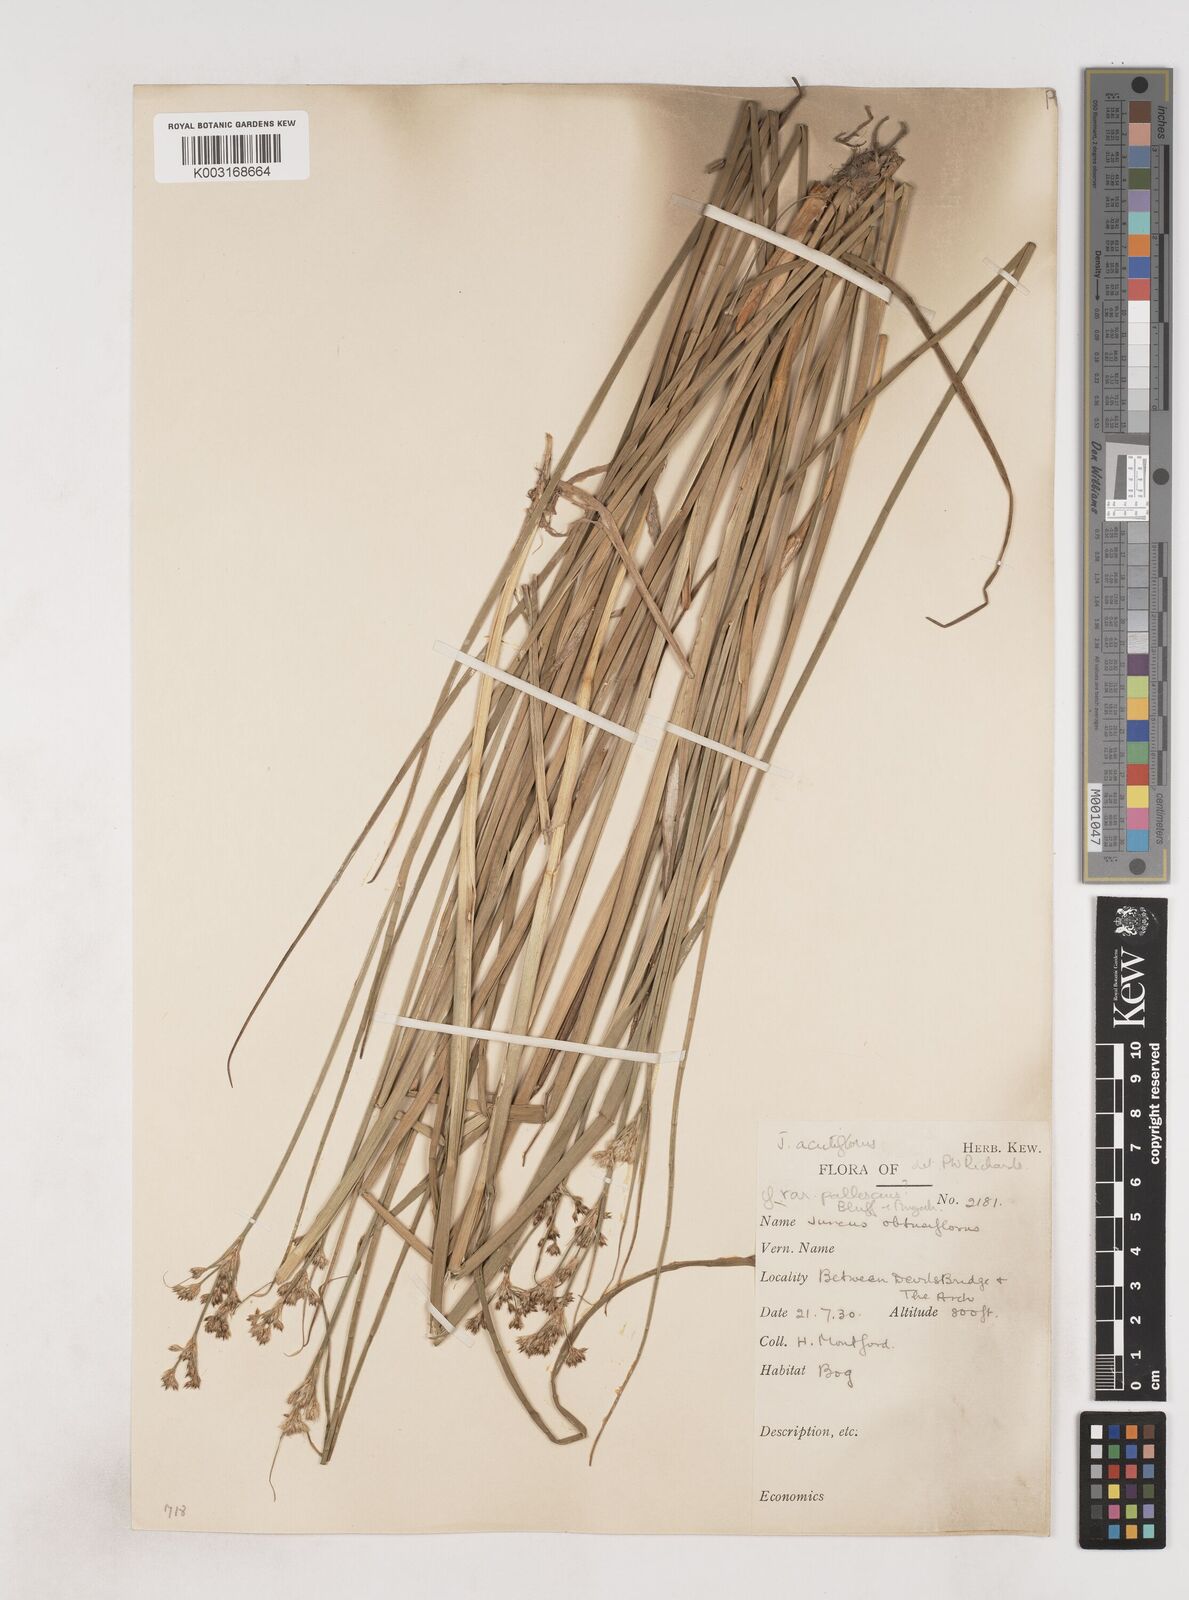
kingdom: Plantae
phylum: Tracheophyta
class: Liliopsida
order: Poales
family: Juncaceae
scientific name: Juncaceae
